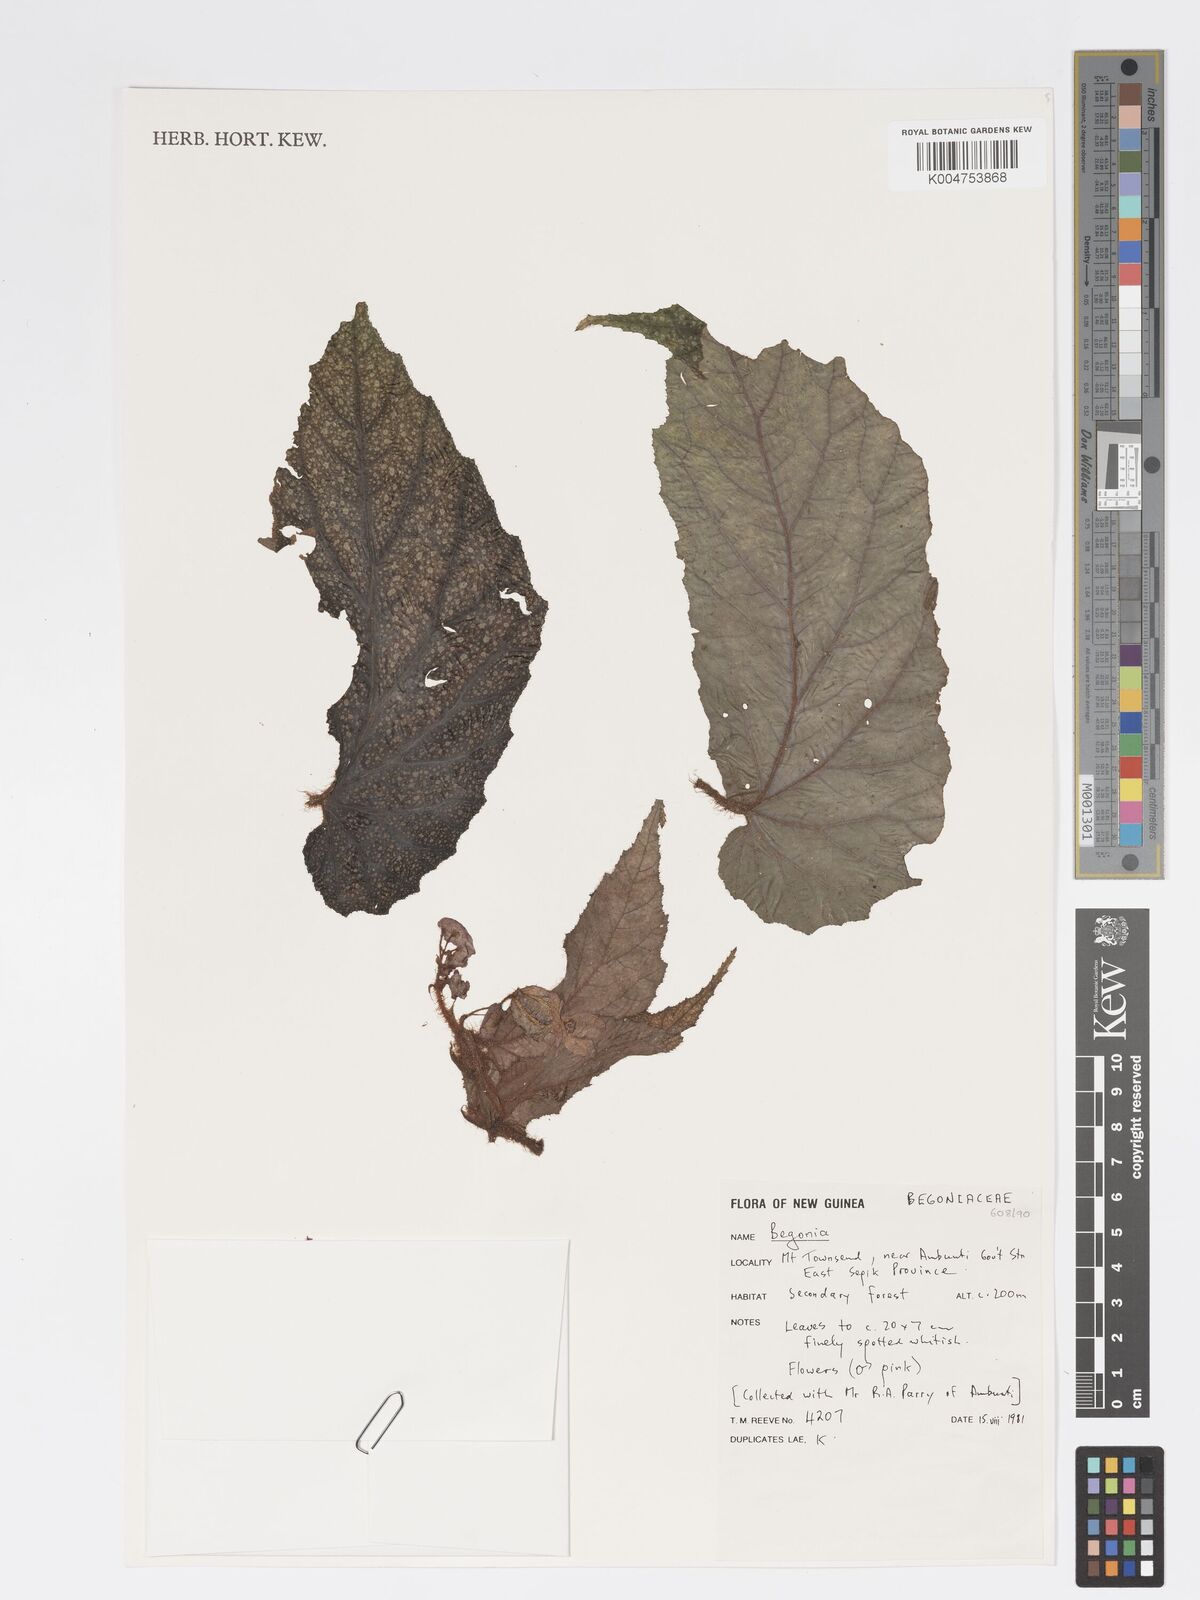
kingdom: Plantae
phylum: Tracheophyta
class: Magnoliopsida
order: Cucurbitales
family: Begoniaceae
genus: Begonia
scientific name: Begonia
